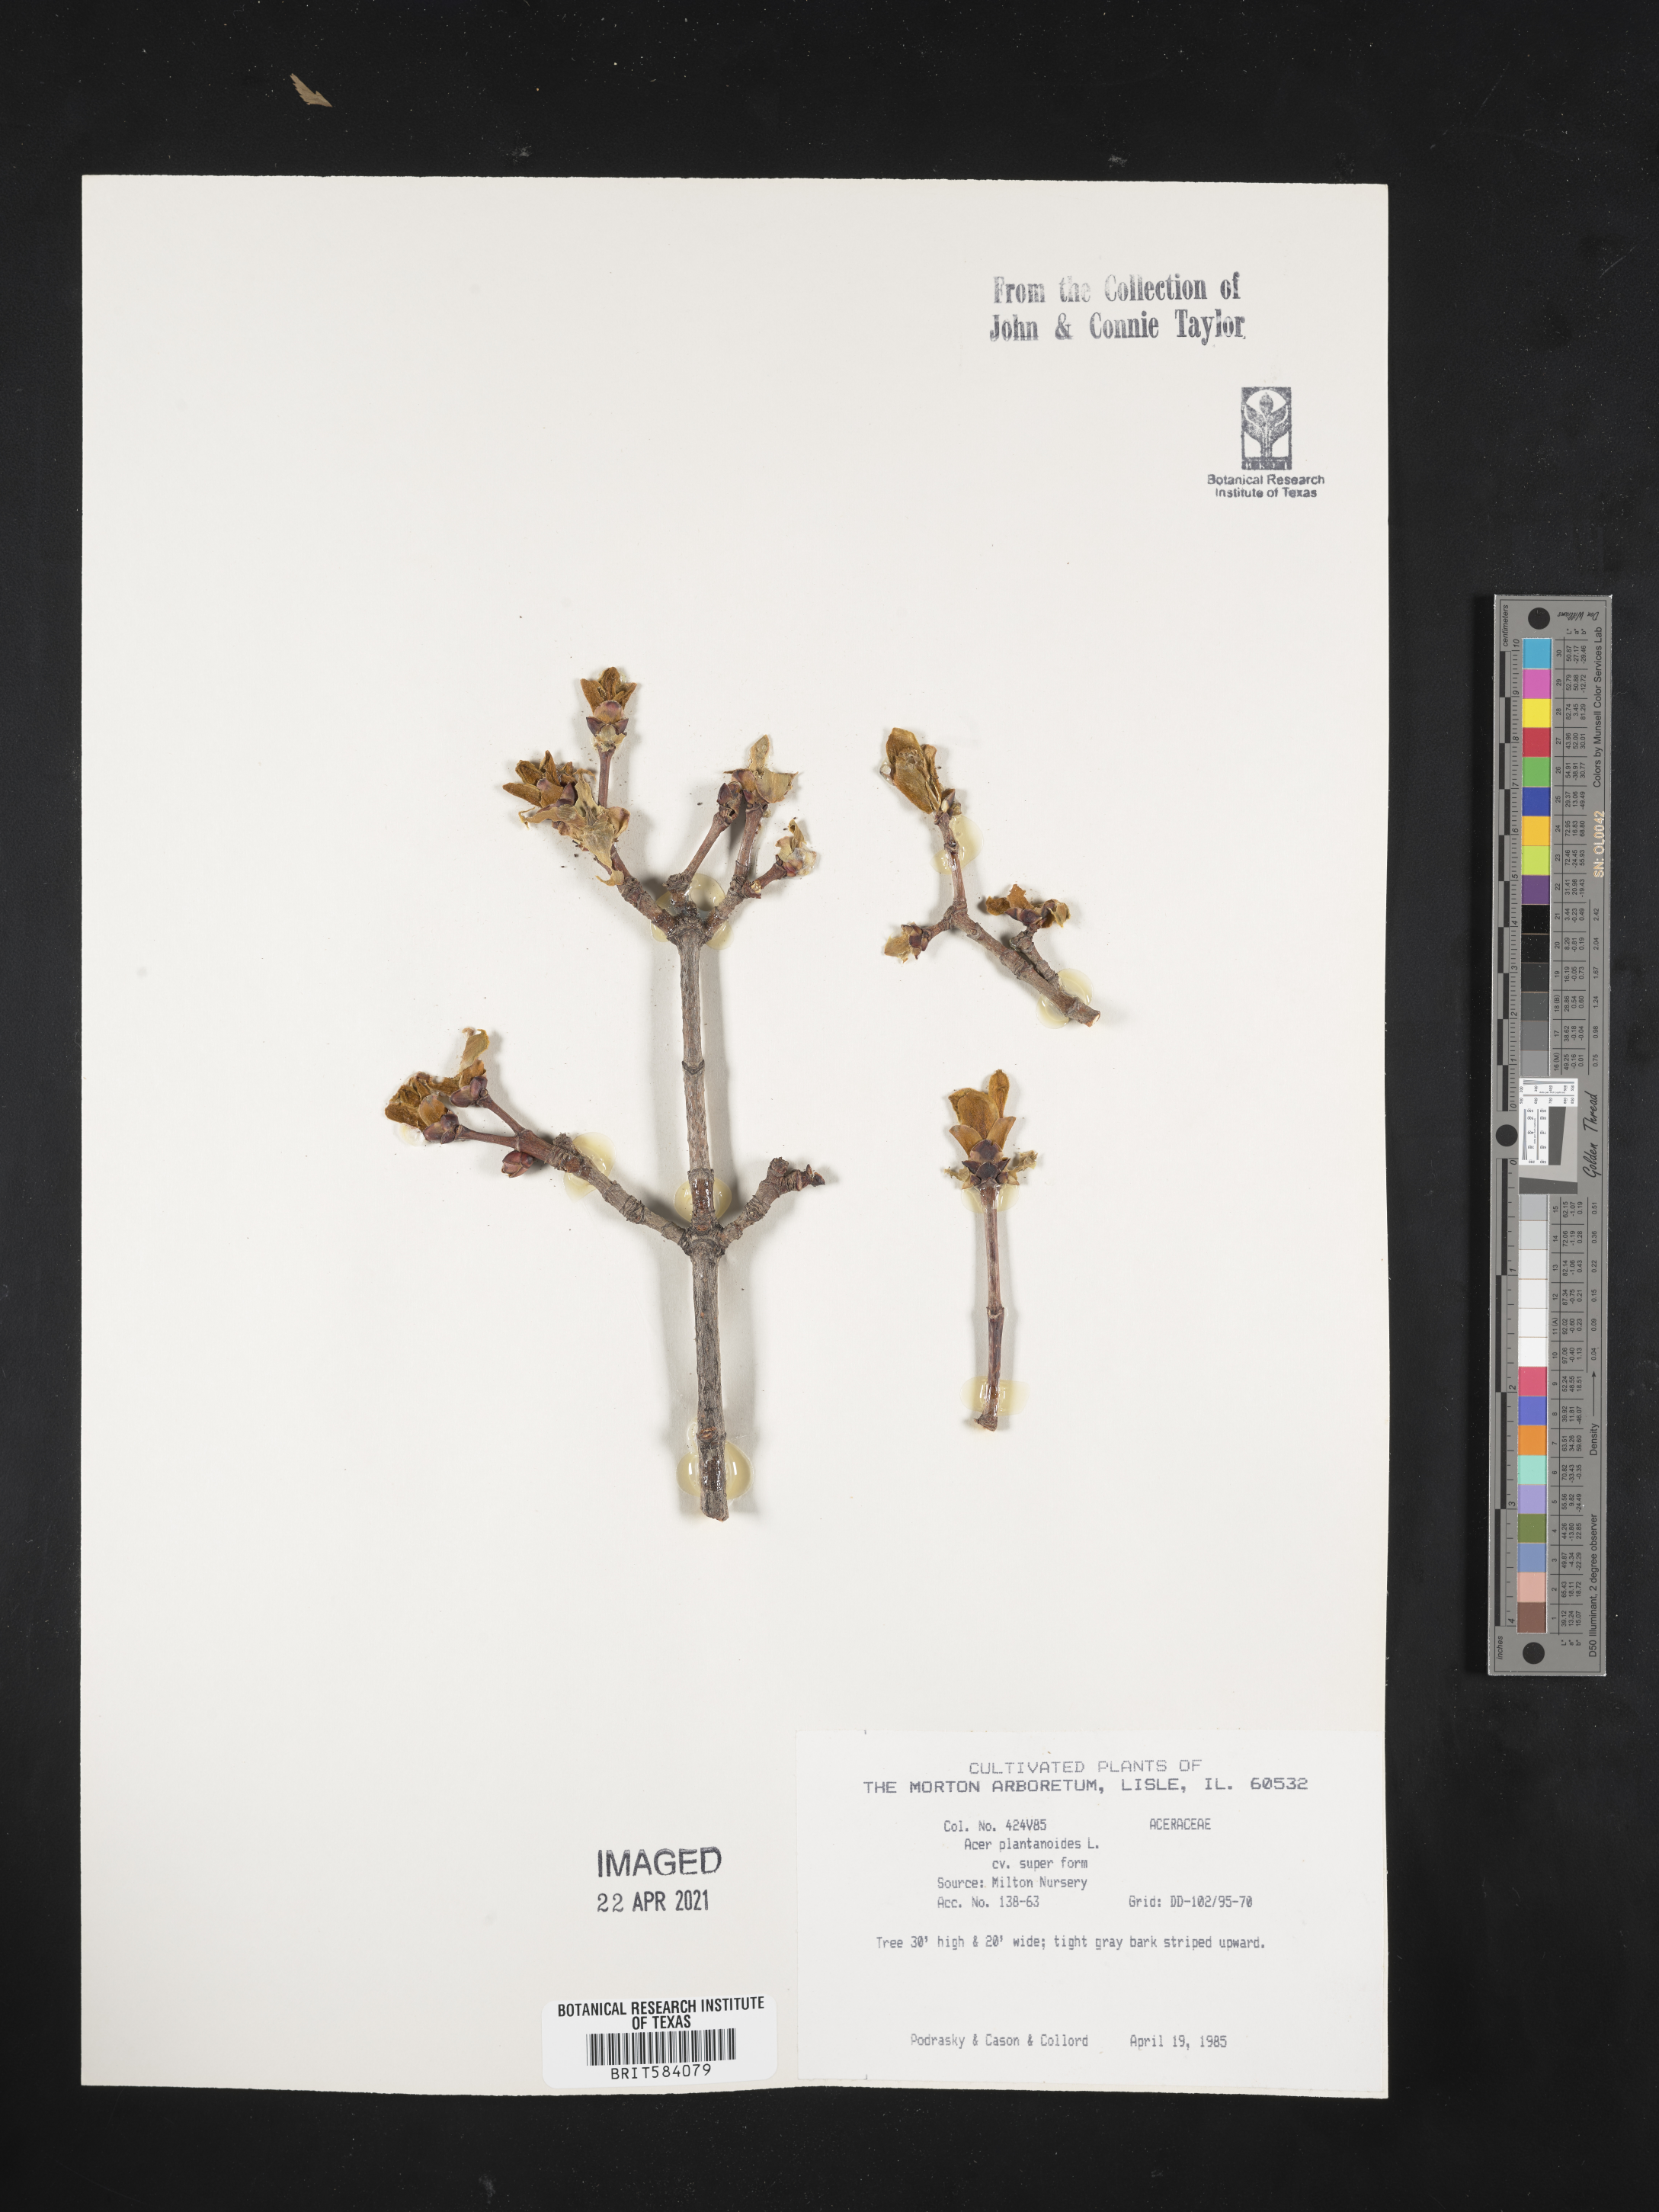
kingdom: Plantae
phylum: Tracheophyta
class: Magnoliopsida
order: Sapindales
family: Sapindaceae
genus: Acer
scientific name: Acer platanoides
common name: Norway maple
